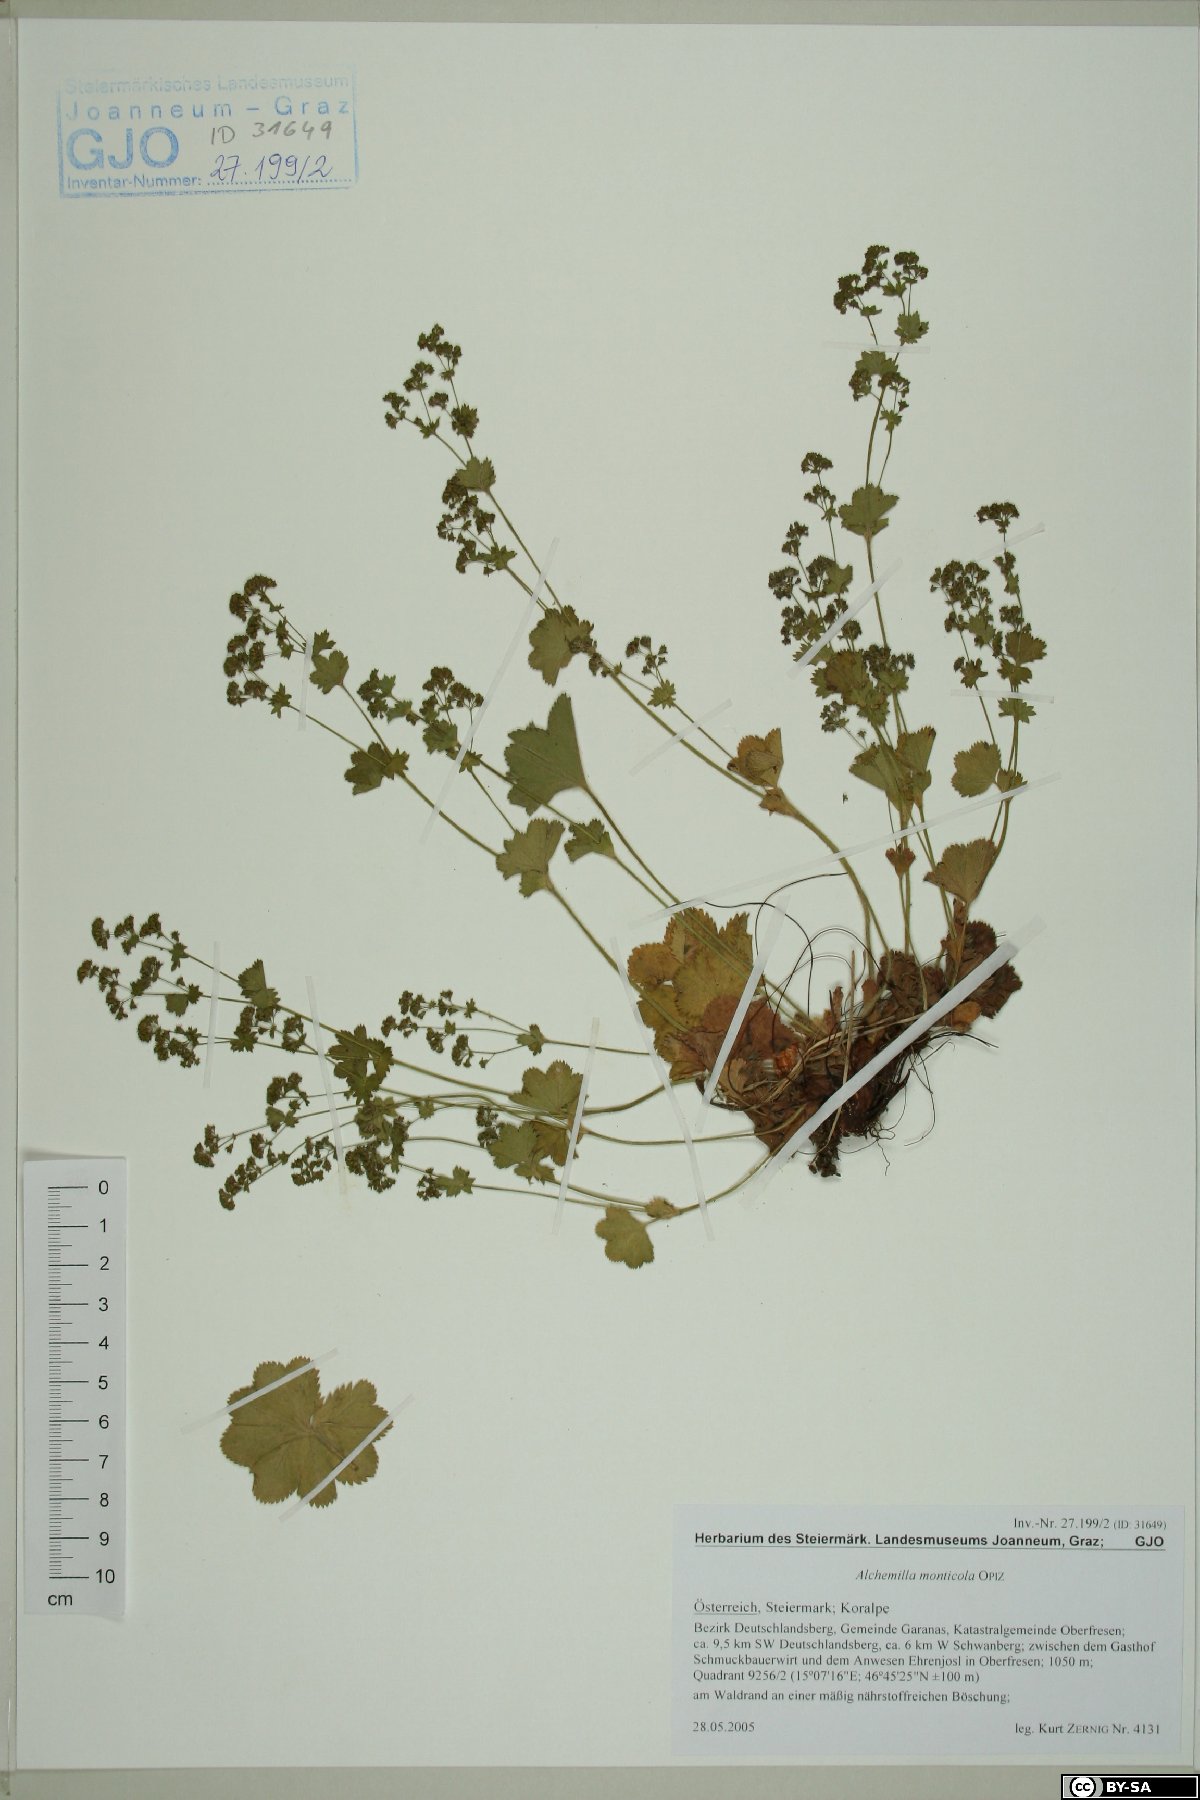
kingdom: Plantae
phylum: Tracheophyta
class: Magnoliopsida
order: Rosales
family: Rosaceae
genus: Alchemilla
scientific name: Alchemilla monticola
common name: Hairy lady's mantle
